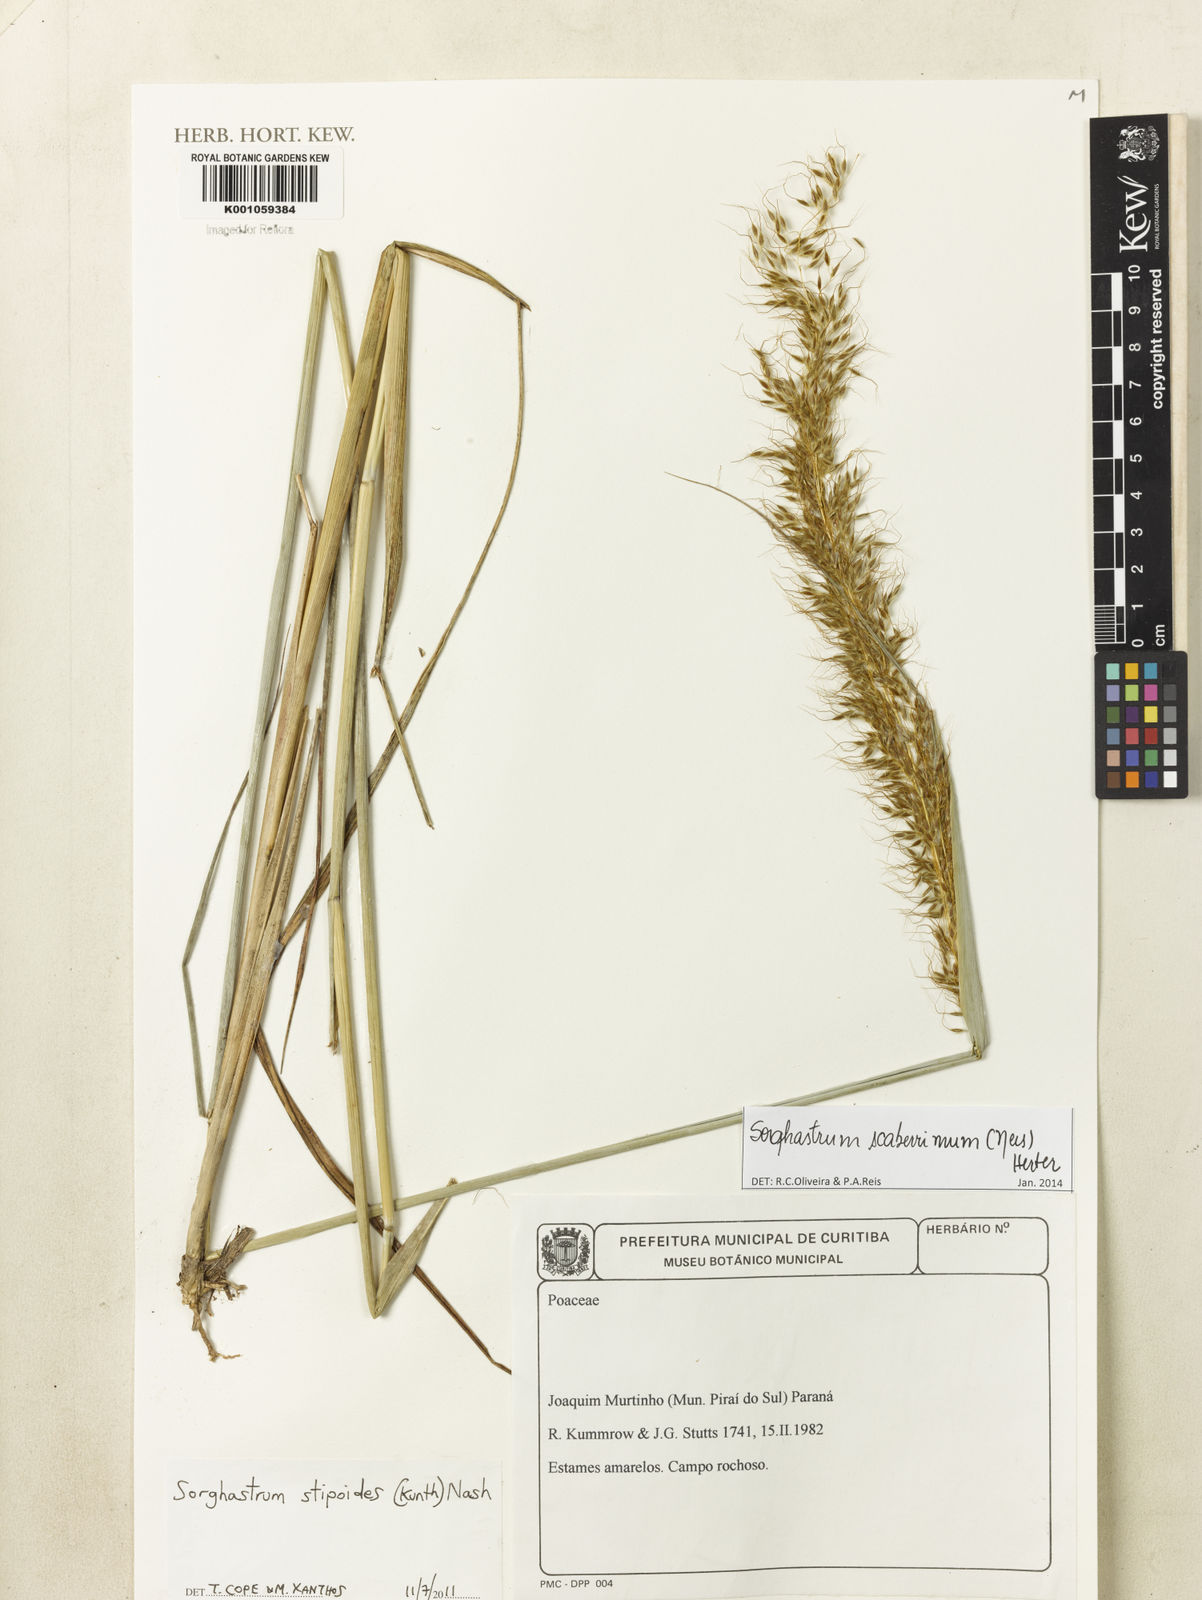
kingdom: Plantae
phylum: Tracheophyta
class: Liliopsida
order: Poales
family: Poaceae
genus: Sorghastrum
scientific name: Sorghastrum scaberrimum
